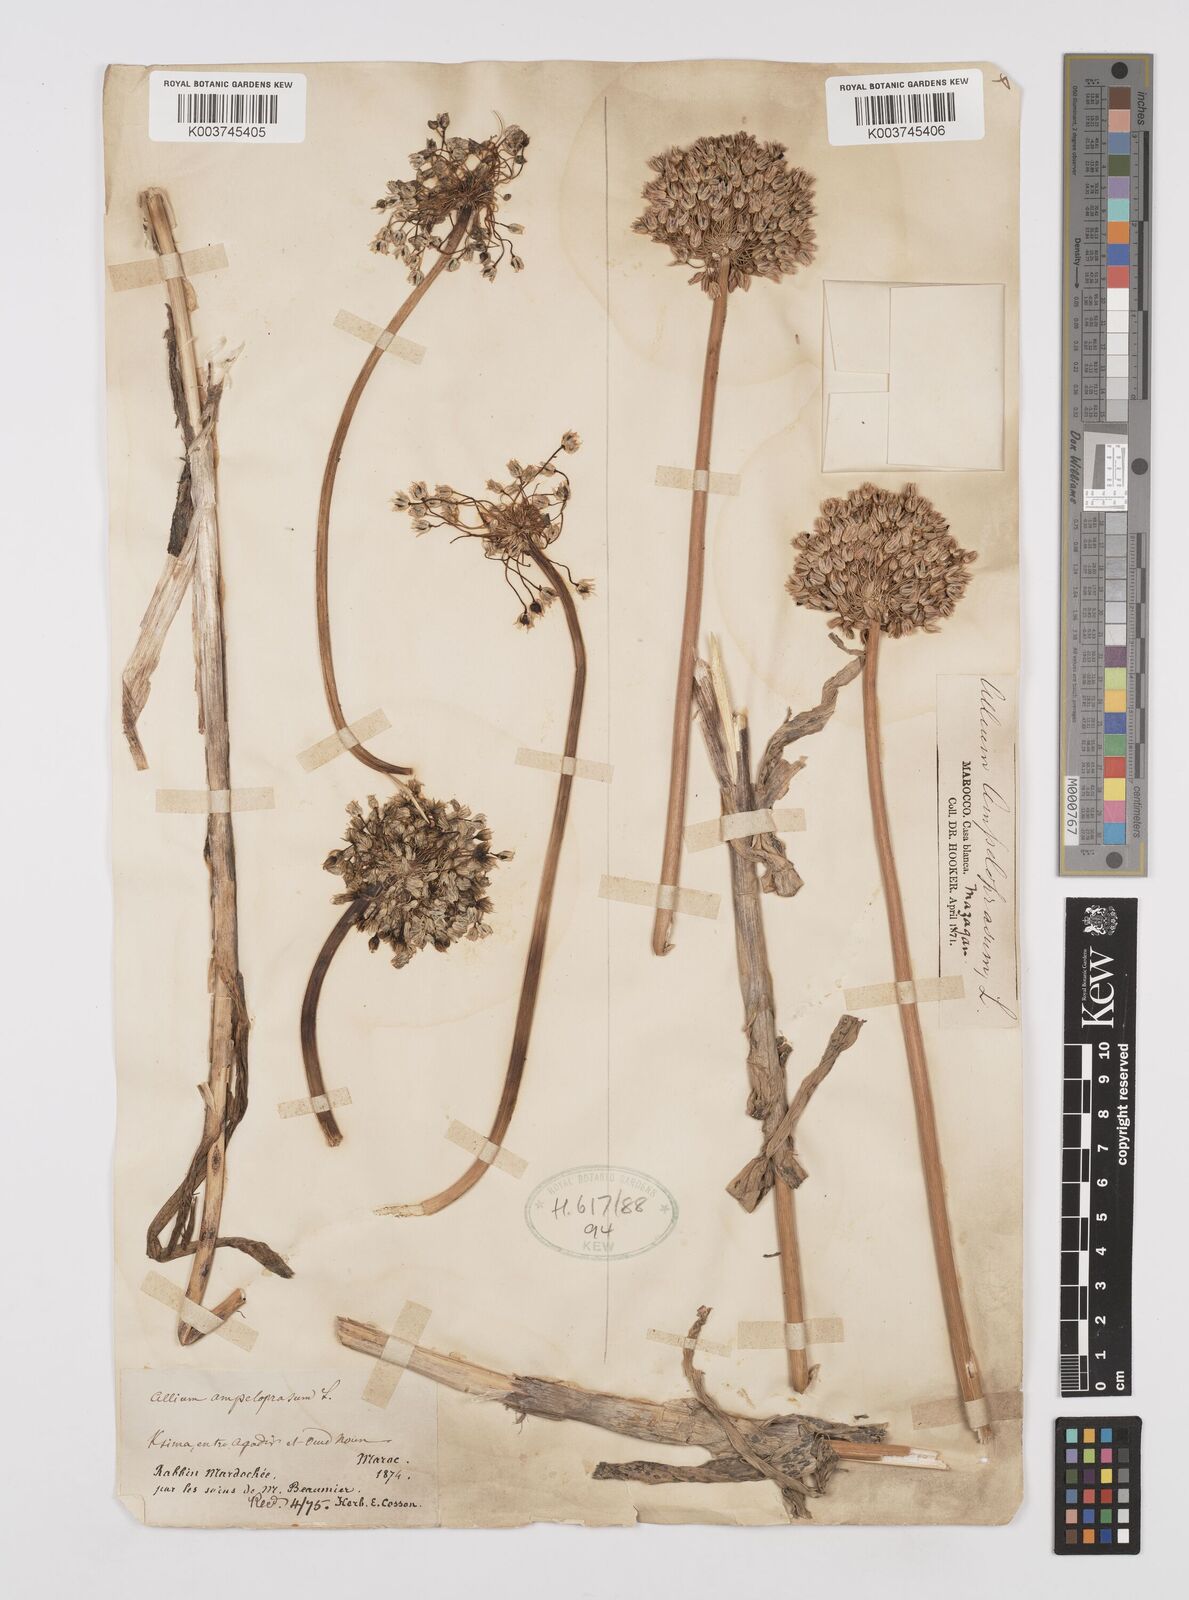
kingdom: Plantae
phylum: Tracheophyta
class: Liliopsida
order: Asparagales
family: Amaryllidaceae
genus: Allium
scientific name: Allium rotundum
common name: Sand leek
